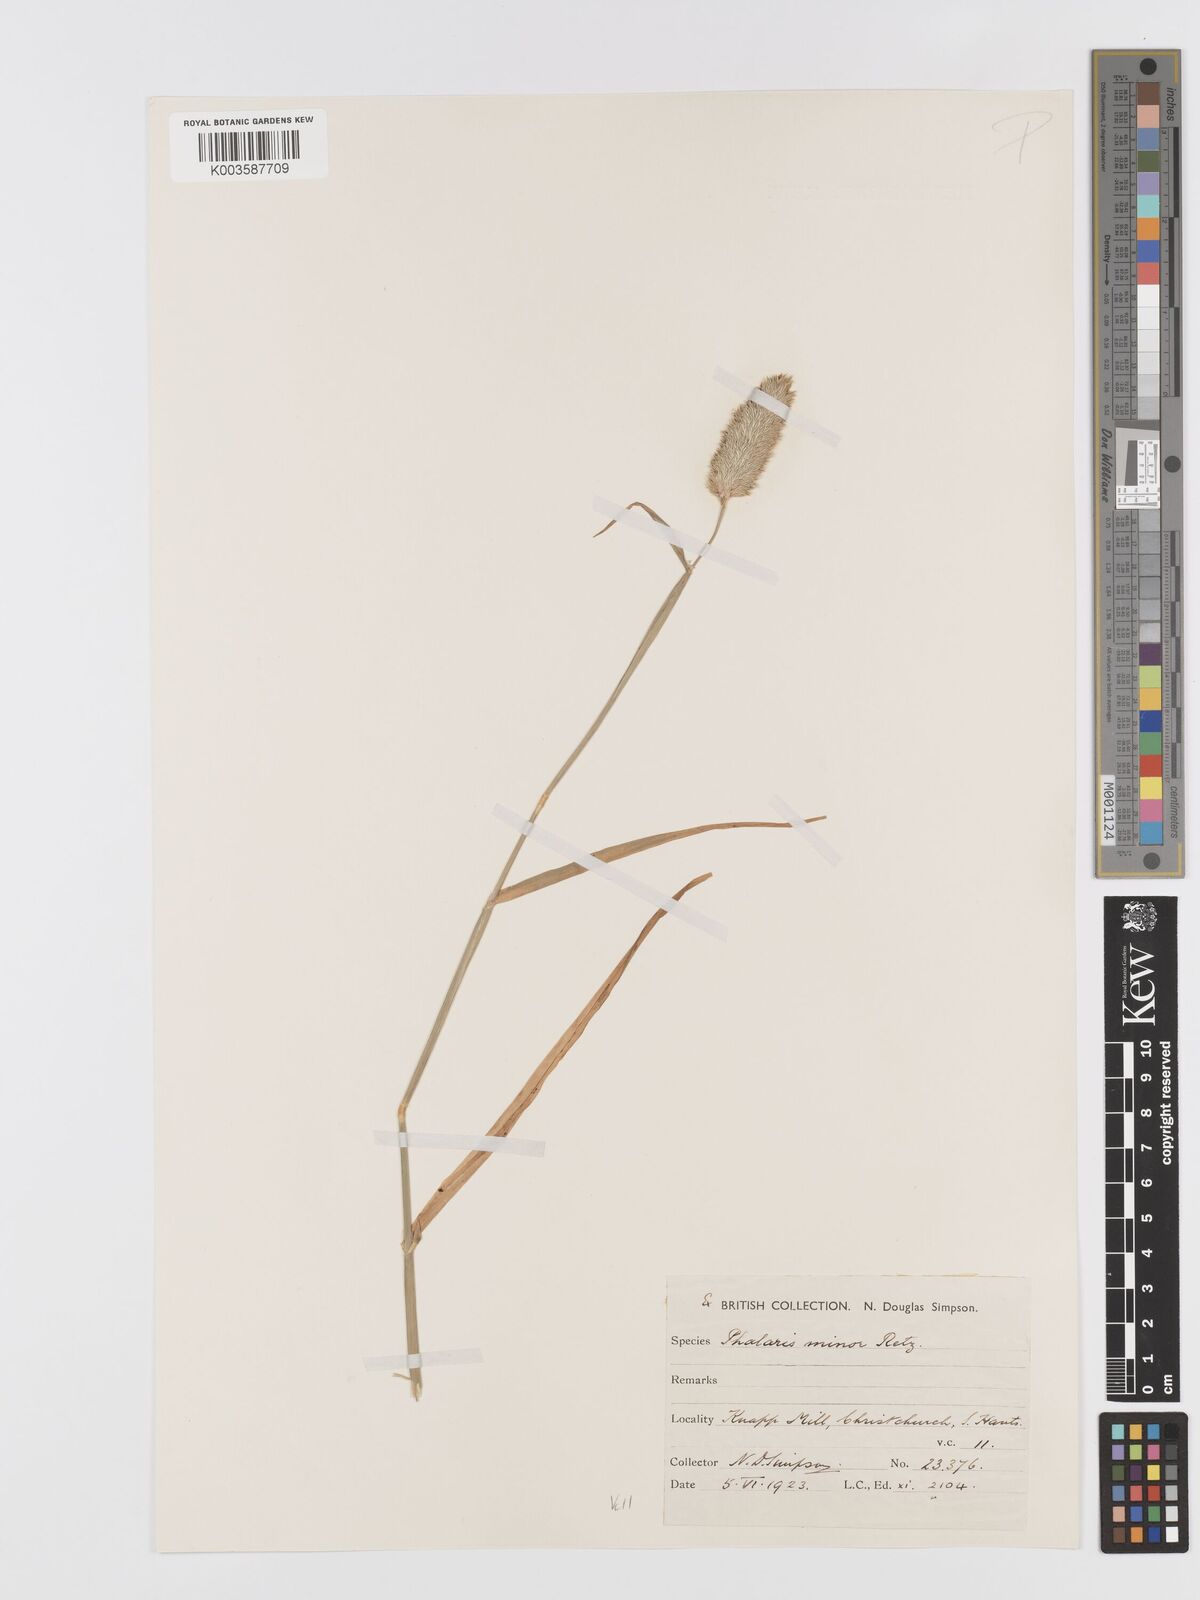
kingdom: Plantae
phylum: Tracheophyta
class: Liliopsida
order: Poales
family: Poaceae
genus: Phalaris
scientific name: Phalaris minor
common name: Littleseed canarygrass
